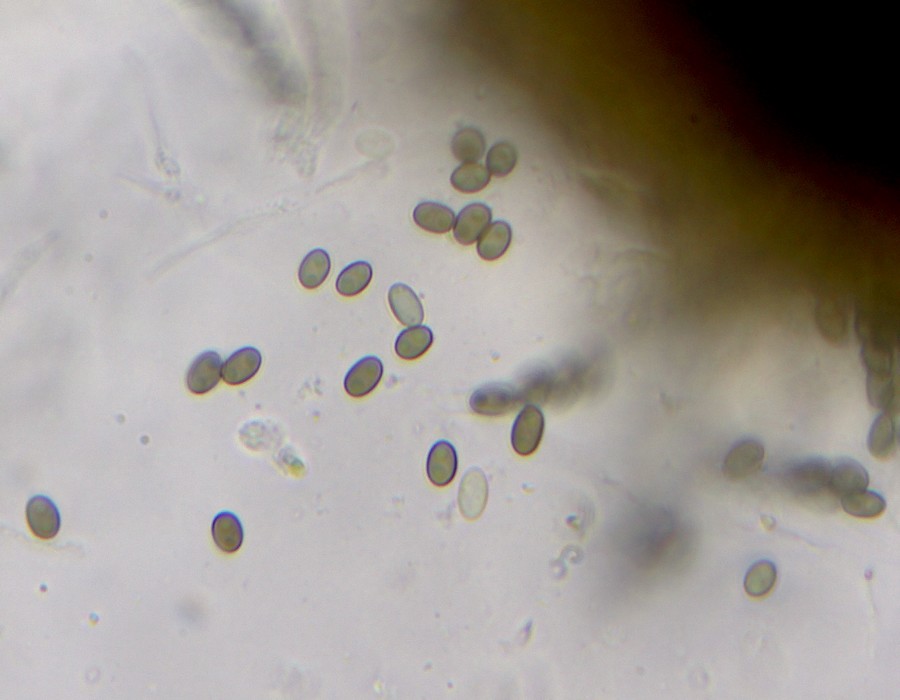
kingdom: Fungi
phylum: Ascomycota
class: Sordariomycetes
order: Coniochaetales
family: Coniochaetaceae
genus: Coniochaeta
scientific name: Coniochaeta kellermanii
